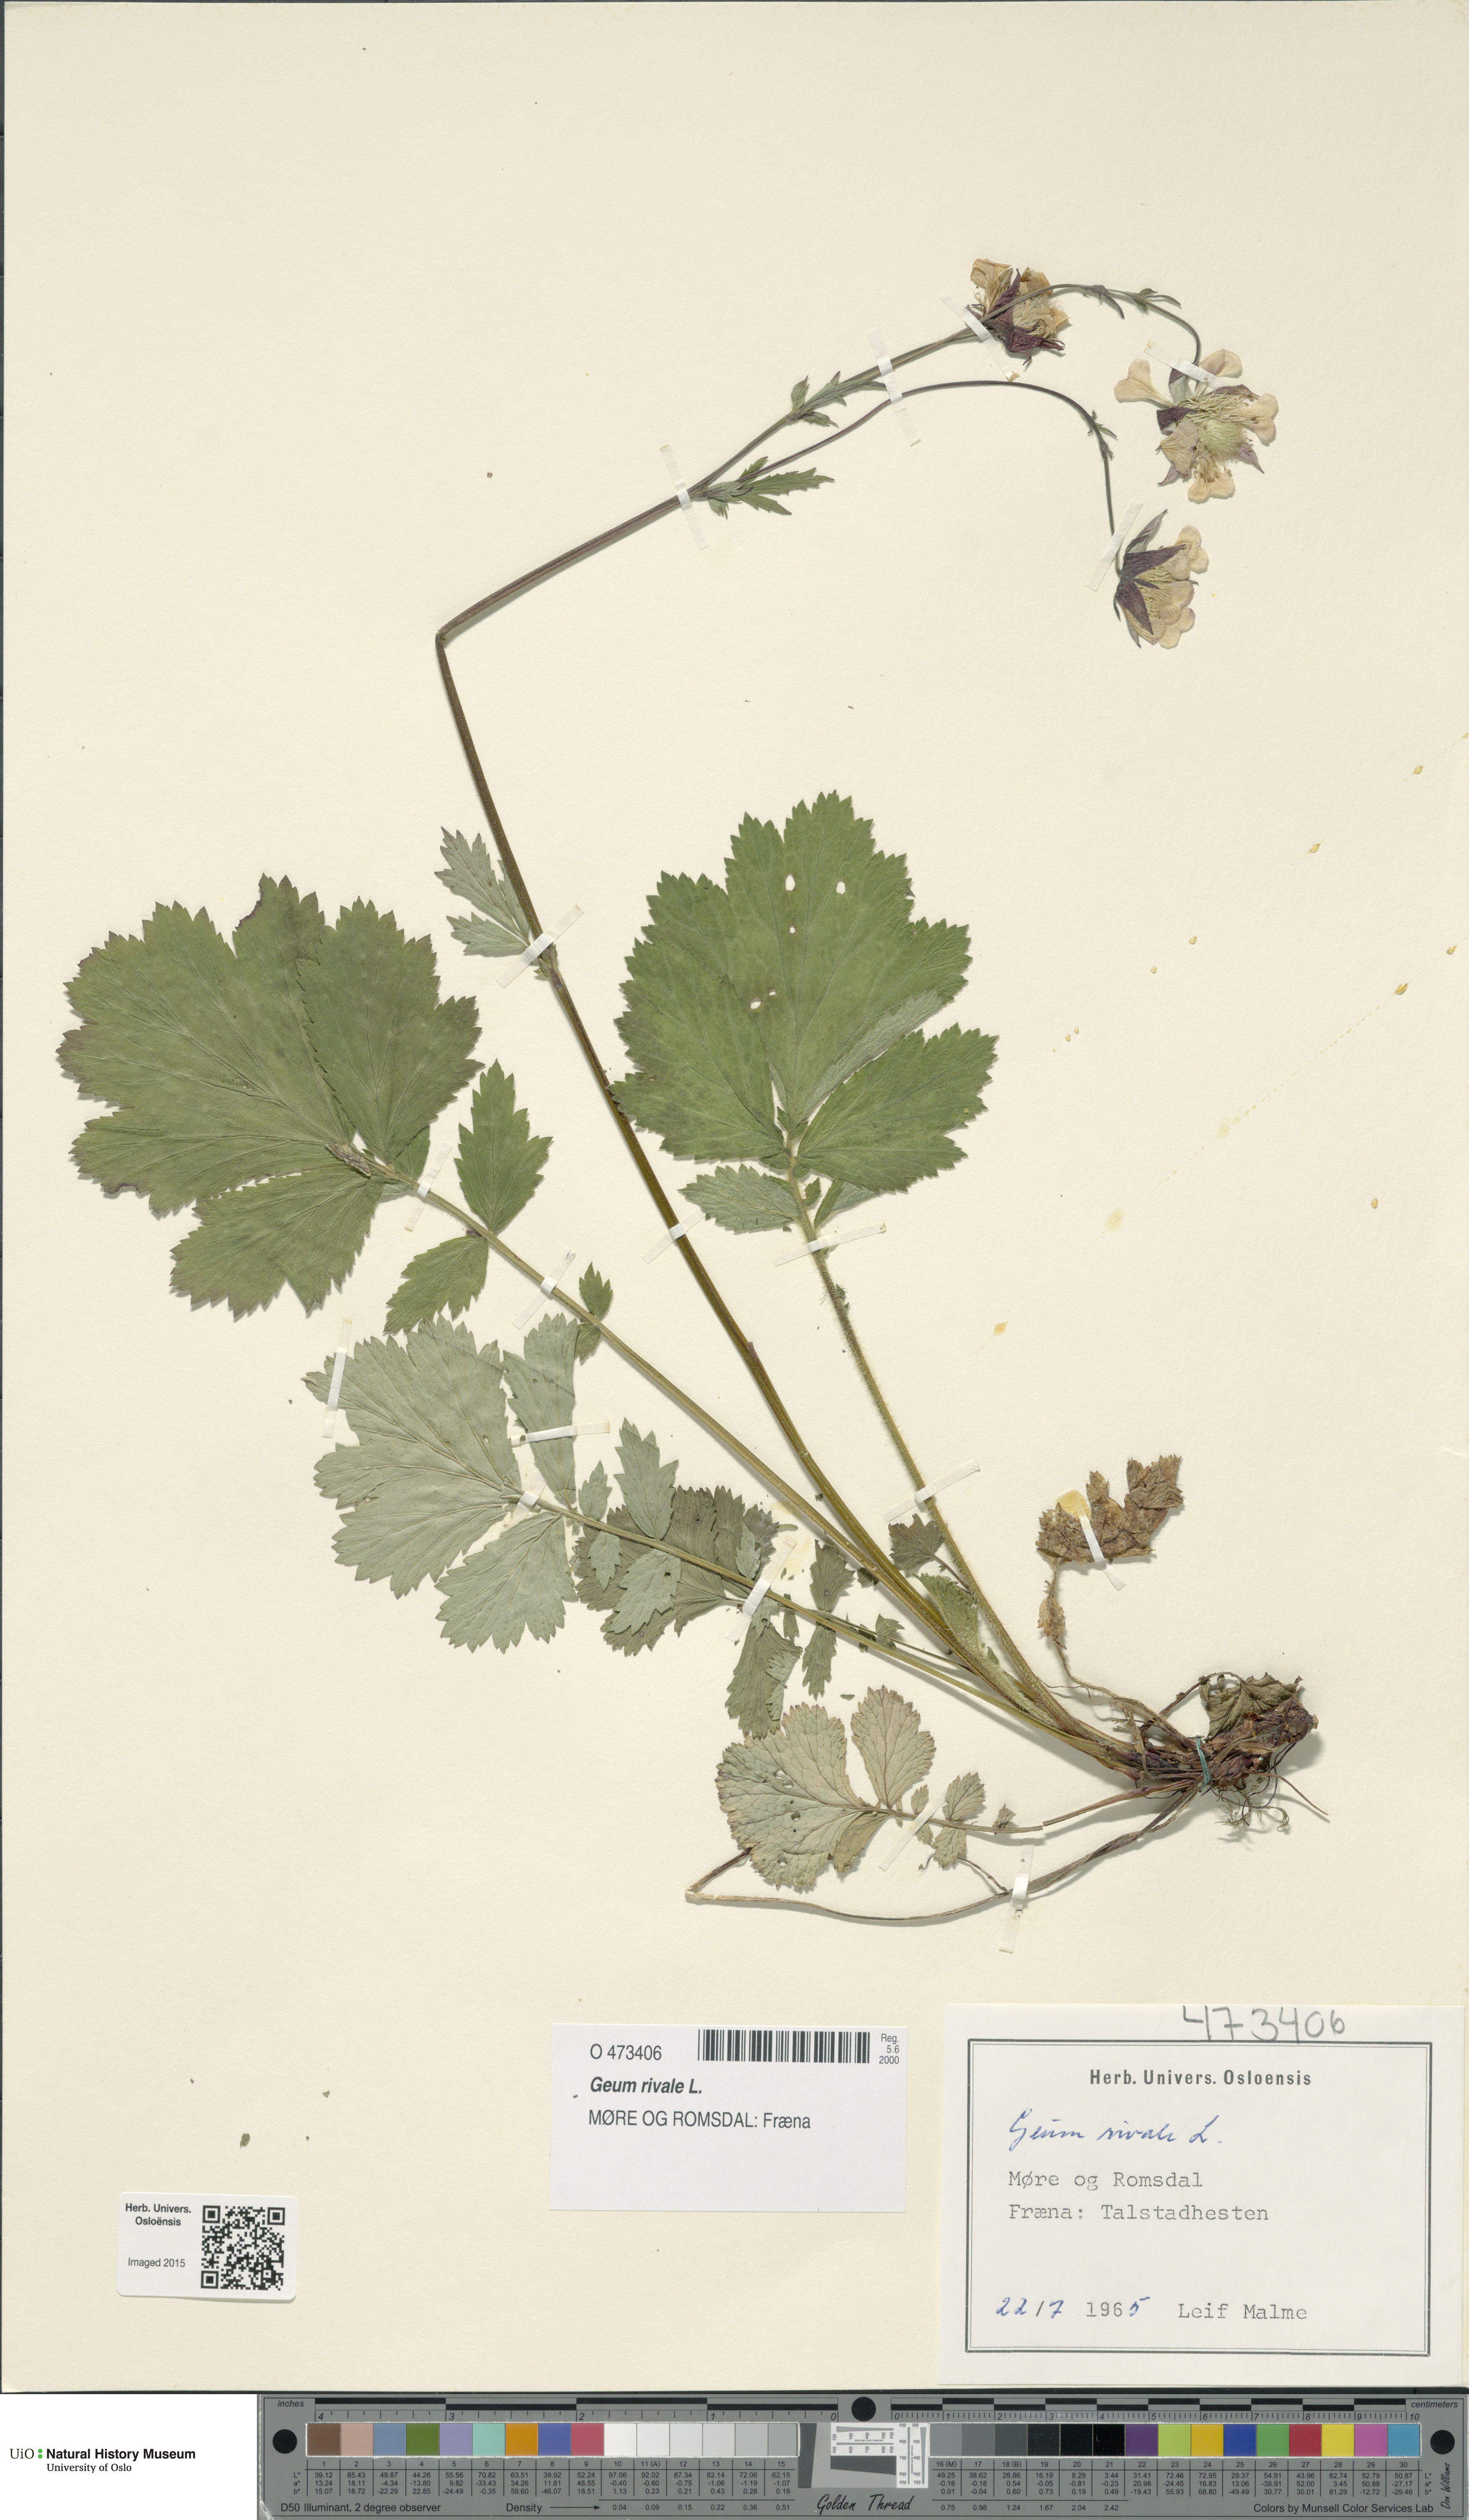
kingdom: Plantae
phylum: Tracheophyta
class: Magnoliopsida
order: Rosales
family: Rosaceae
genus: Geum
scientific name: Geum rivale
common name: Water avens
